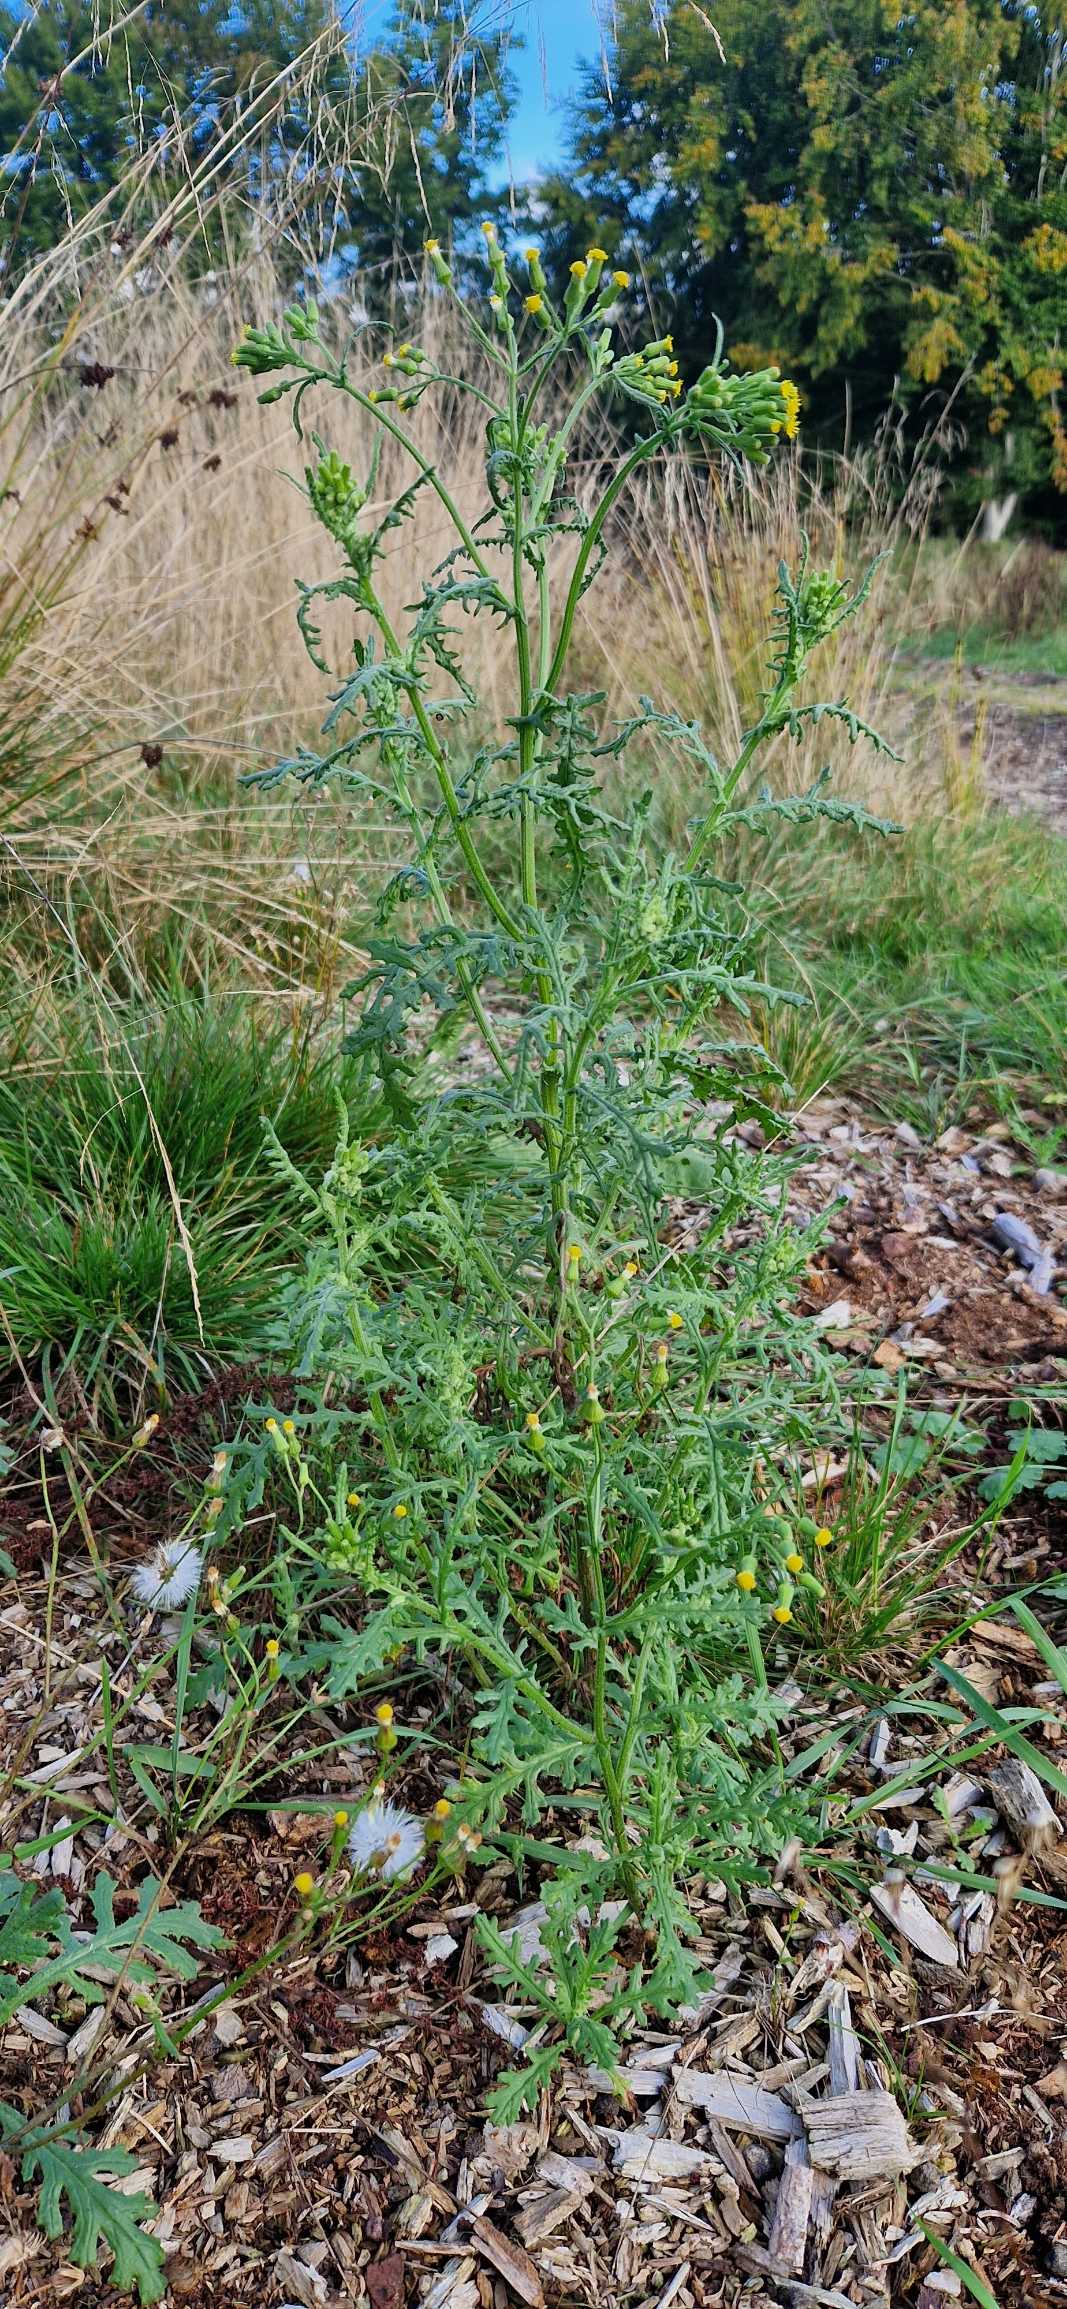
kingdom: Plantae
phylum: Tracheophyta
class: Magnoliopsida
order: Asterales
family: Asteraceae
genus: Senecio
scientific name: Senecio sylvaticus
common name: Skov-brandbæger
